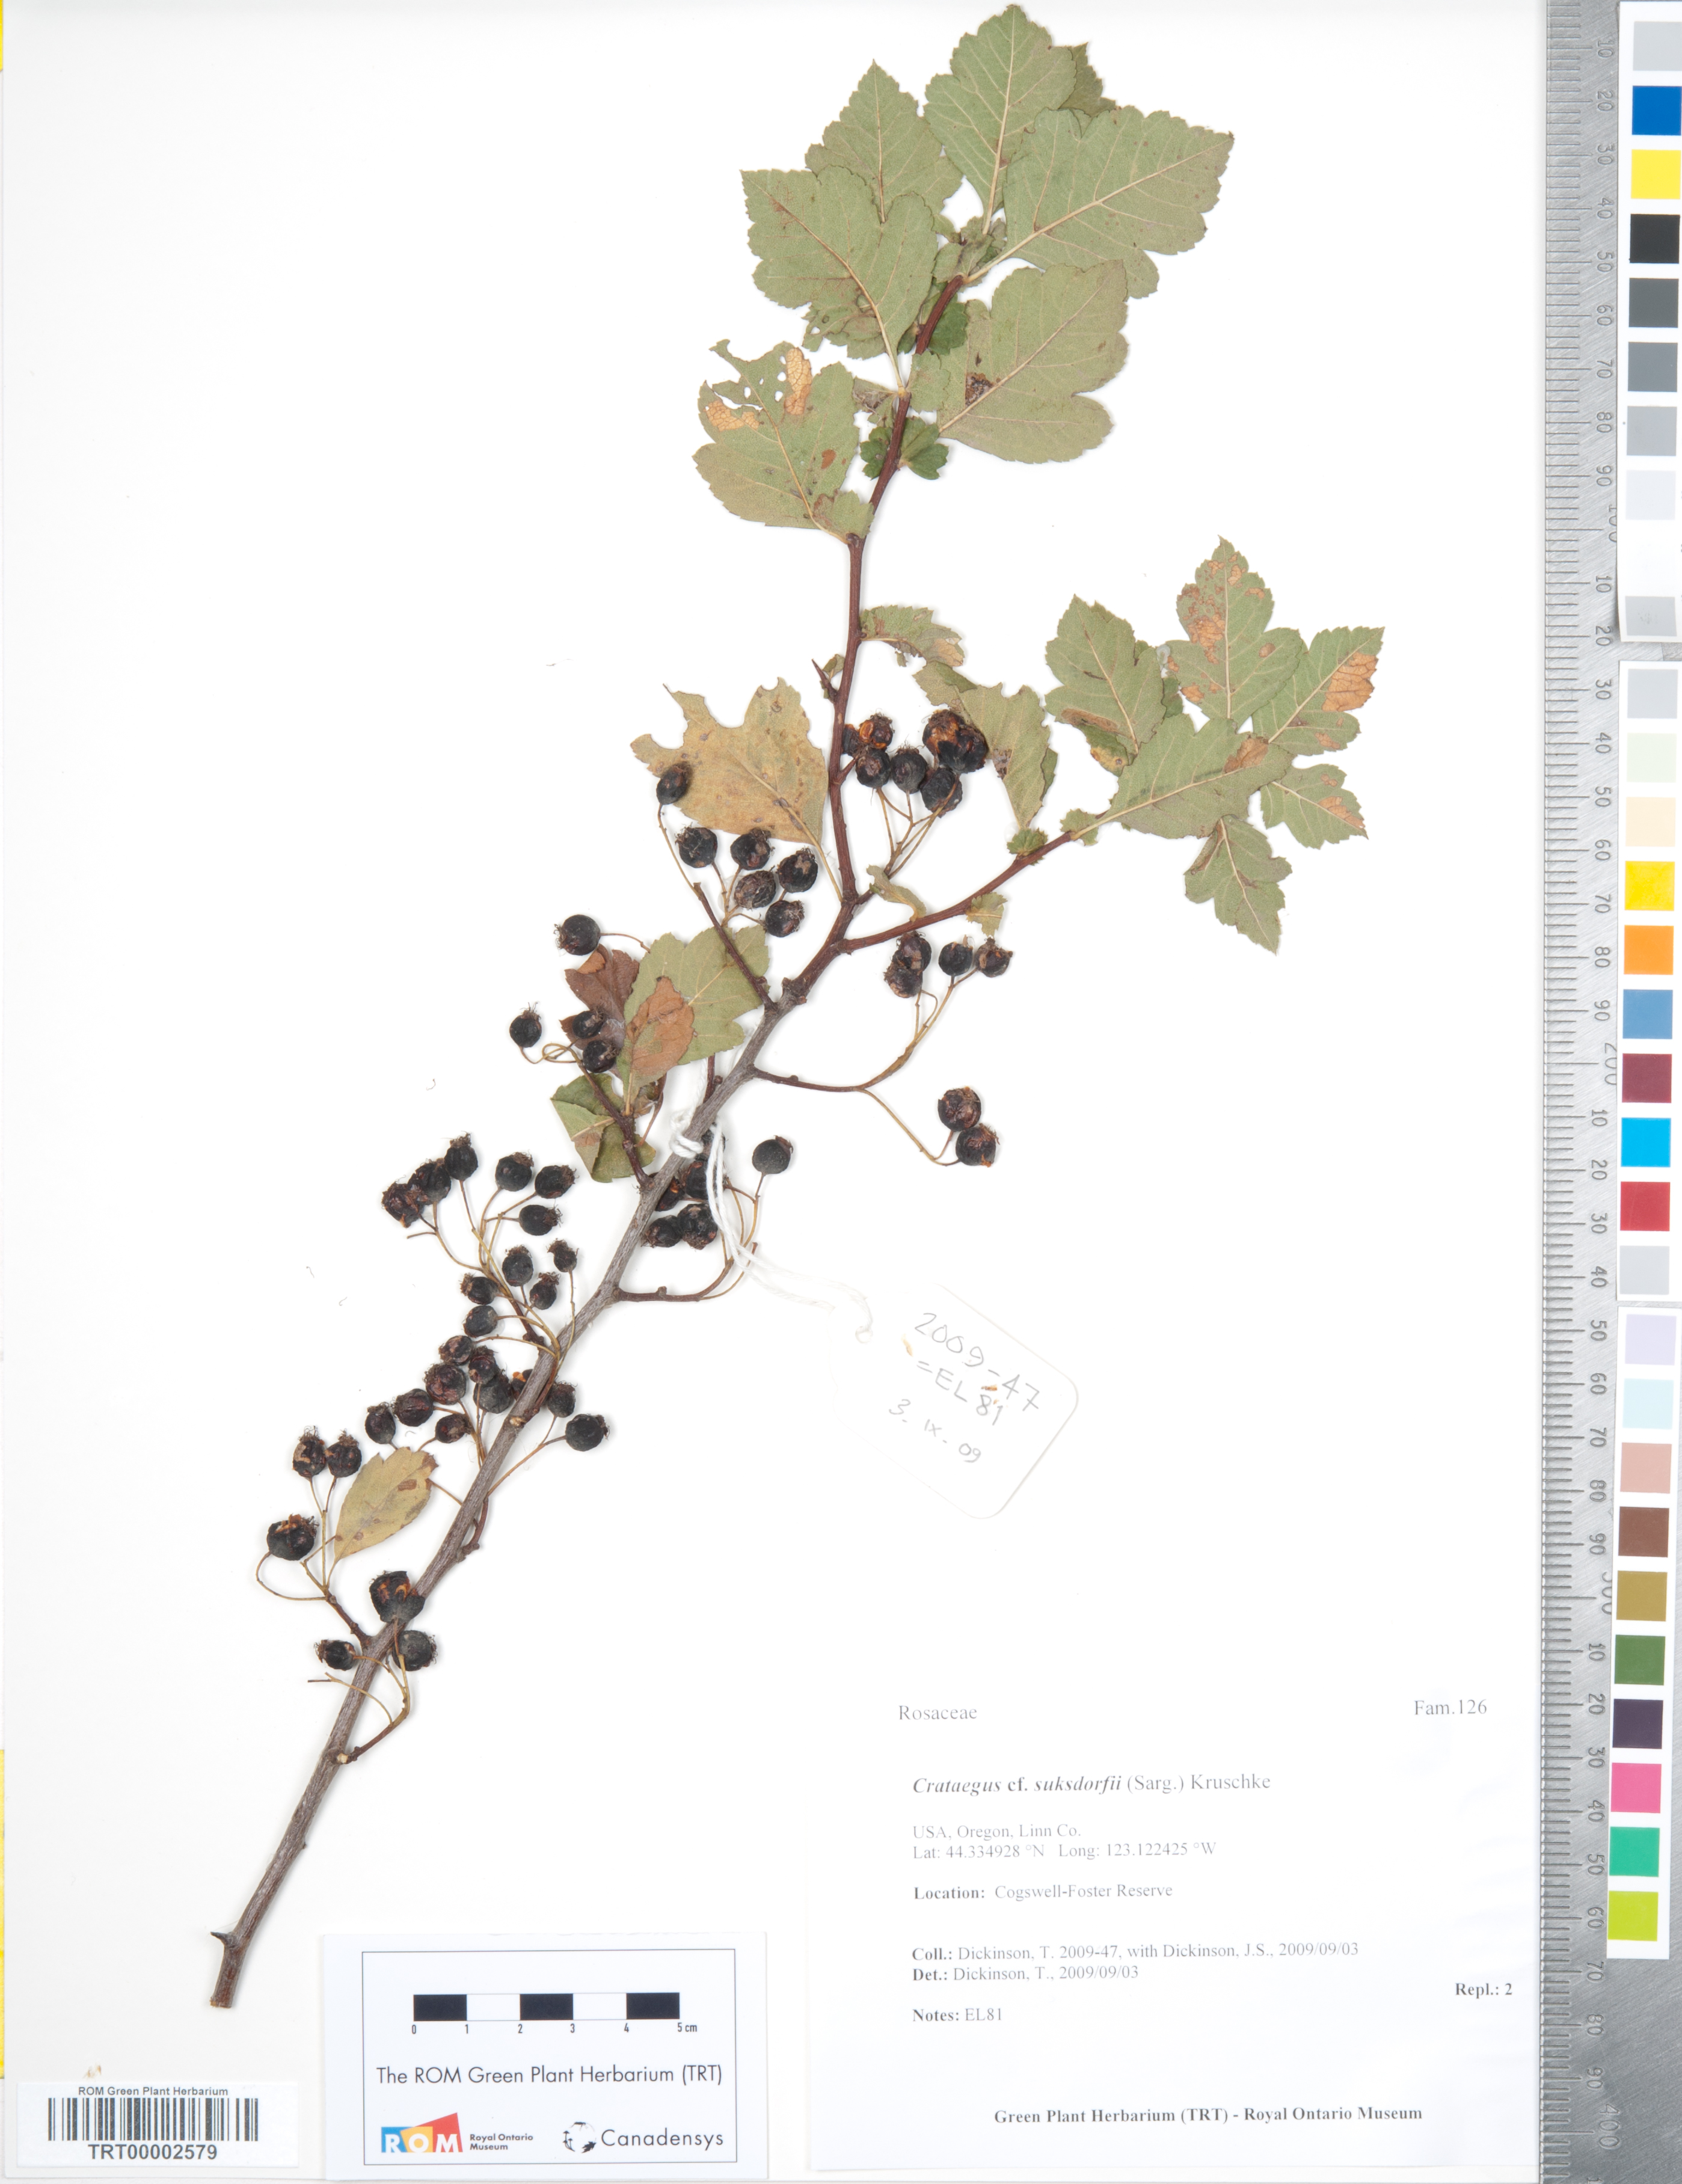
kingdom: Plantae
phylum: Tracheophyta
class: Magnoliopsida
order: Rosales
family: Rosaceae
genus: Crataegus
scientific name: Crataegus monogyna
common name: Hawthorn
